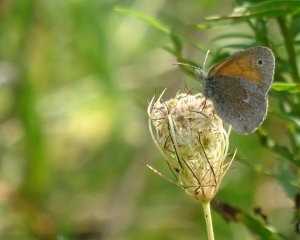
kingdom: Animalia
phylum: Arthropoda
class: Insecta
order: Lepidoptera
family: Nymphalidae
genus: Coenonympha
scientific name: Coenonympha tullia
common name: Large Heath
